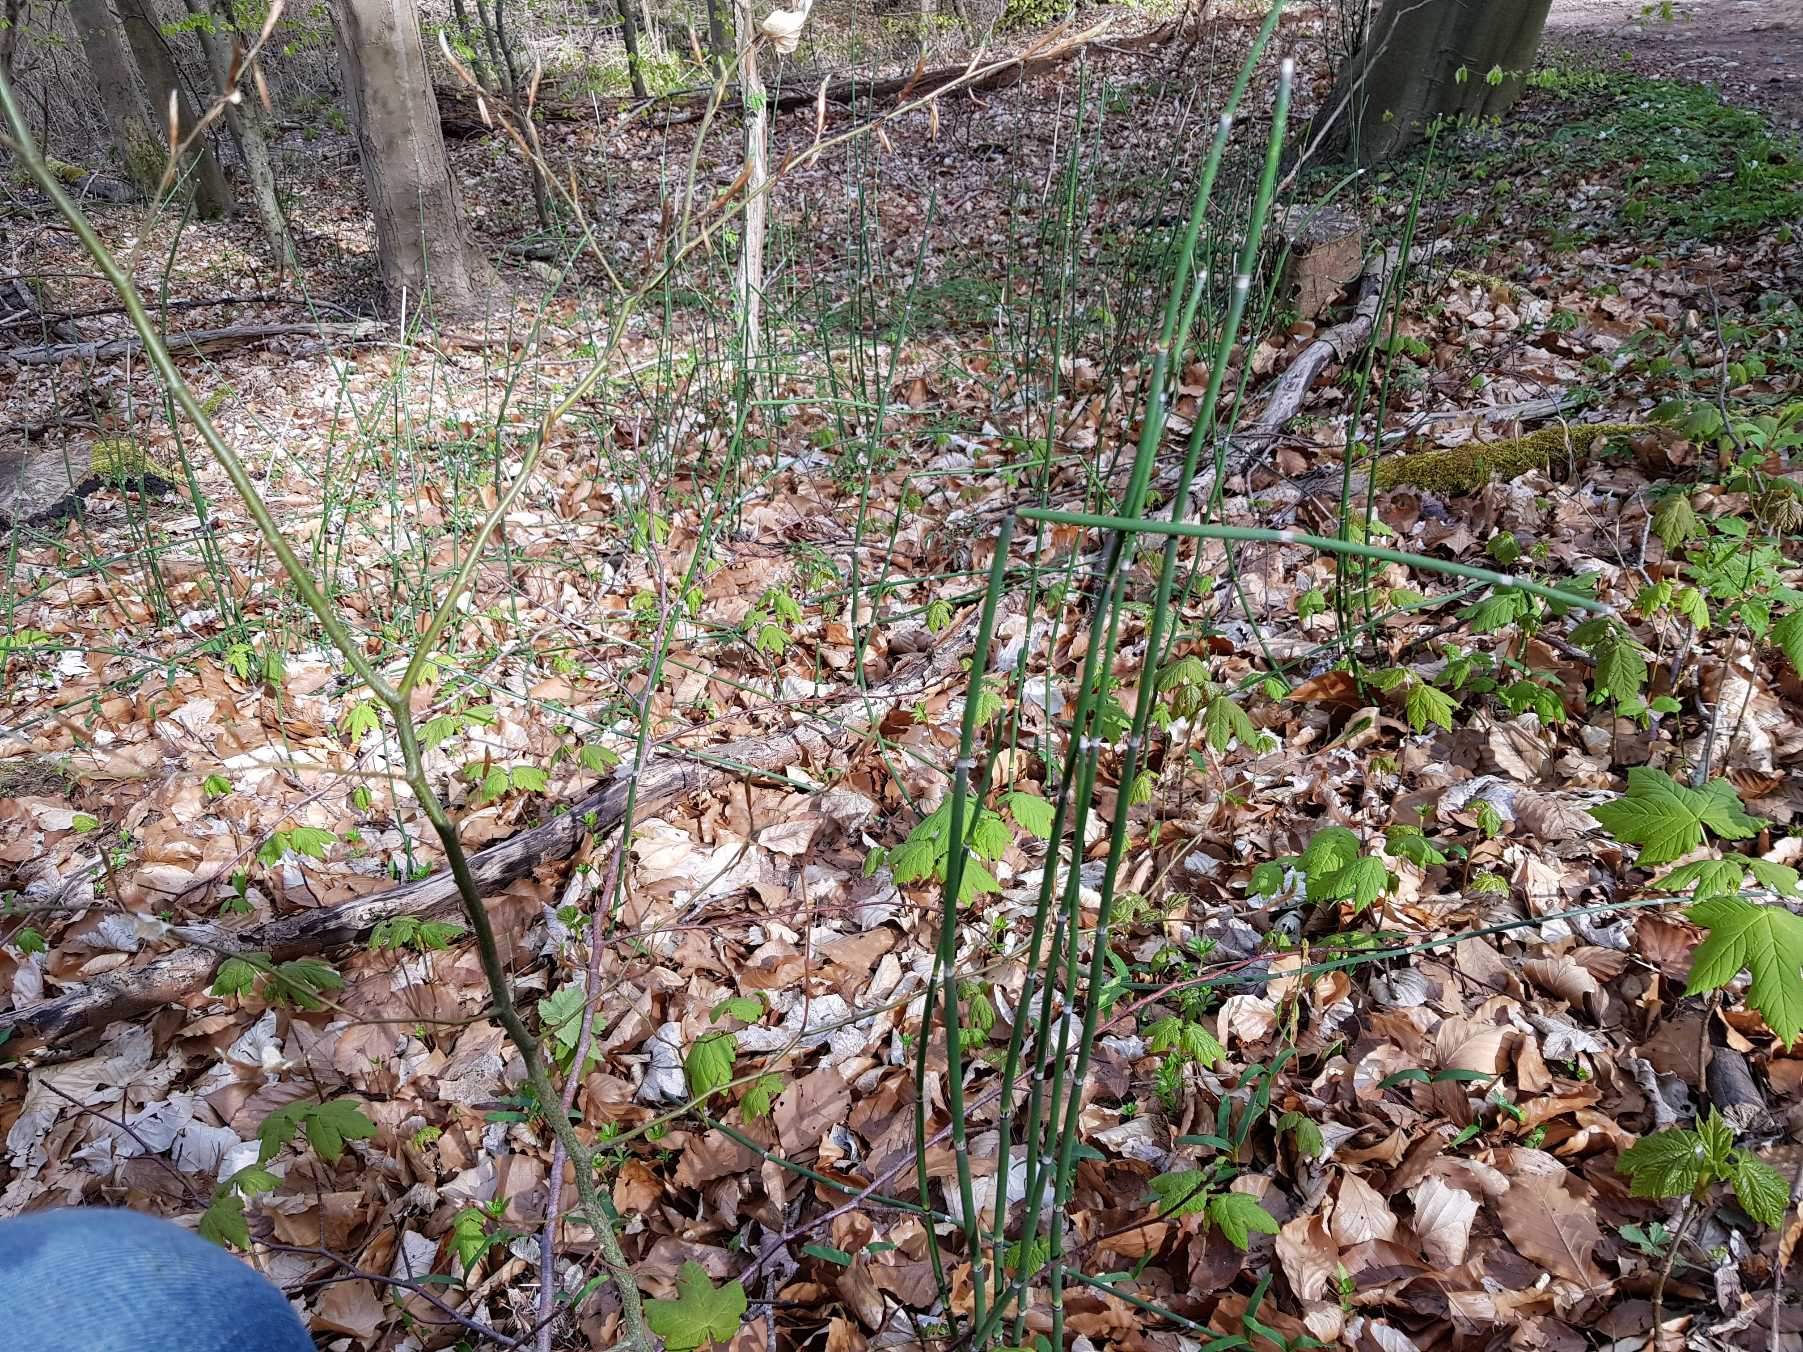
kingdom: Plantae
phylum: Tracheophyta
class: Polypodiopsida
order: Equisetales
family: Equisetaceae
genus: Equisetum
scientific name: Equisetum hyemale
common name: Skavgræs
